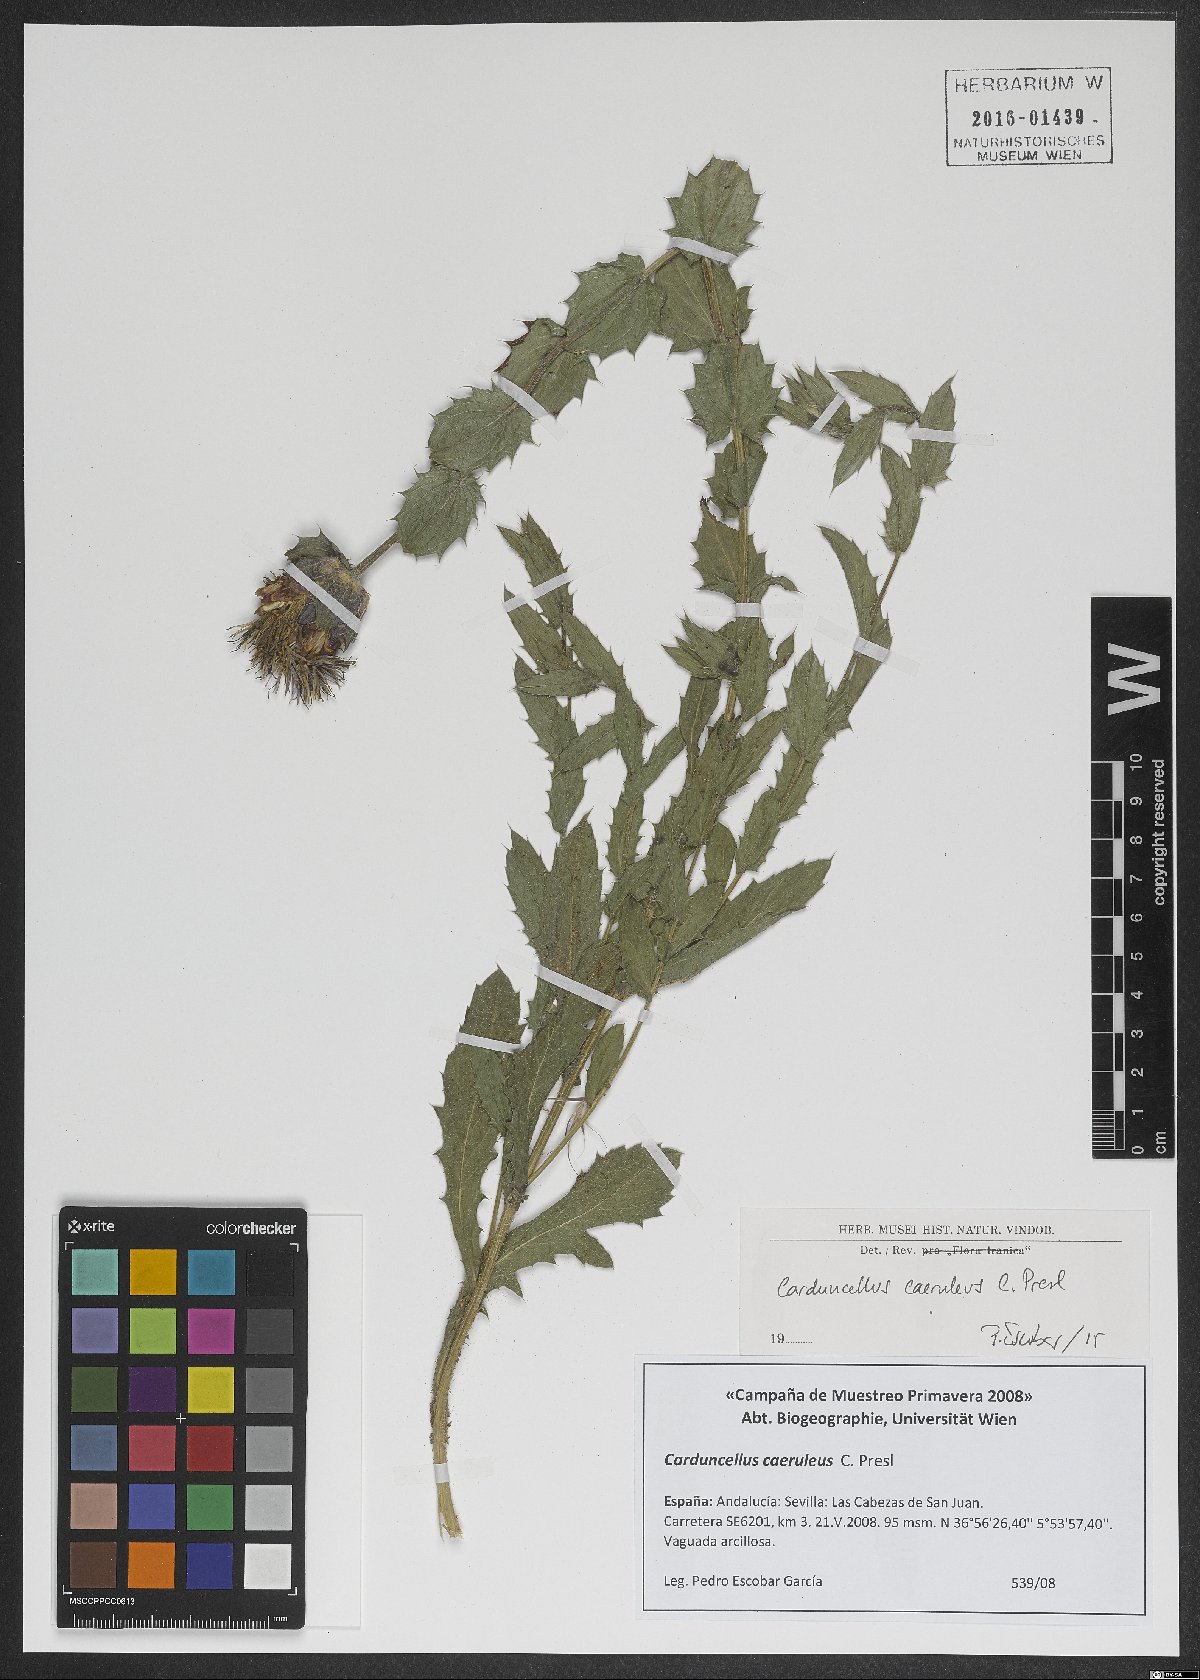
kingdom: Plantae
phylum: Tracheophyta
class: Magnoliopsida
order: Asterales
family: Asteraceae
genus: Carduncellus
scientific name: Carduncellus caeruleus
